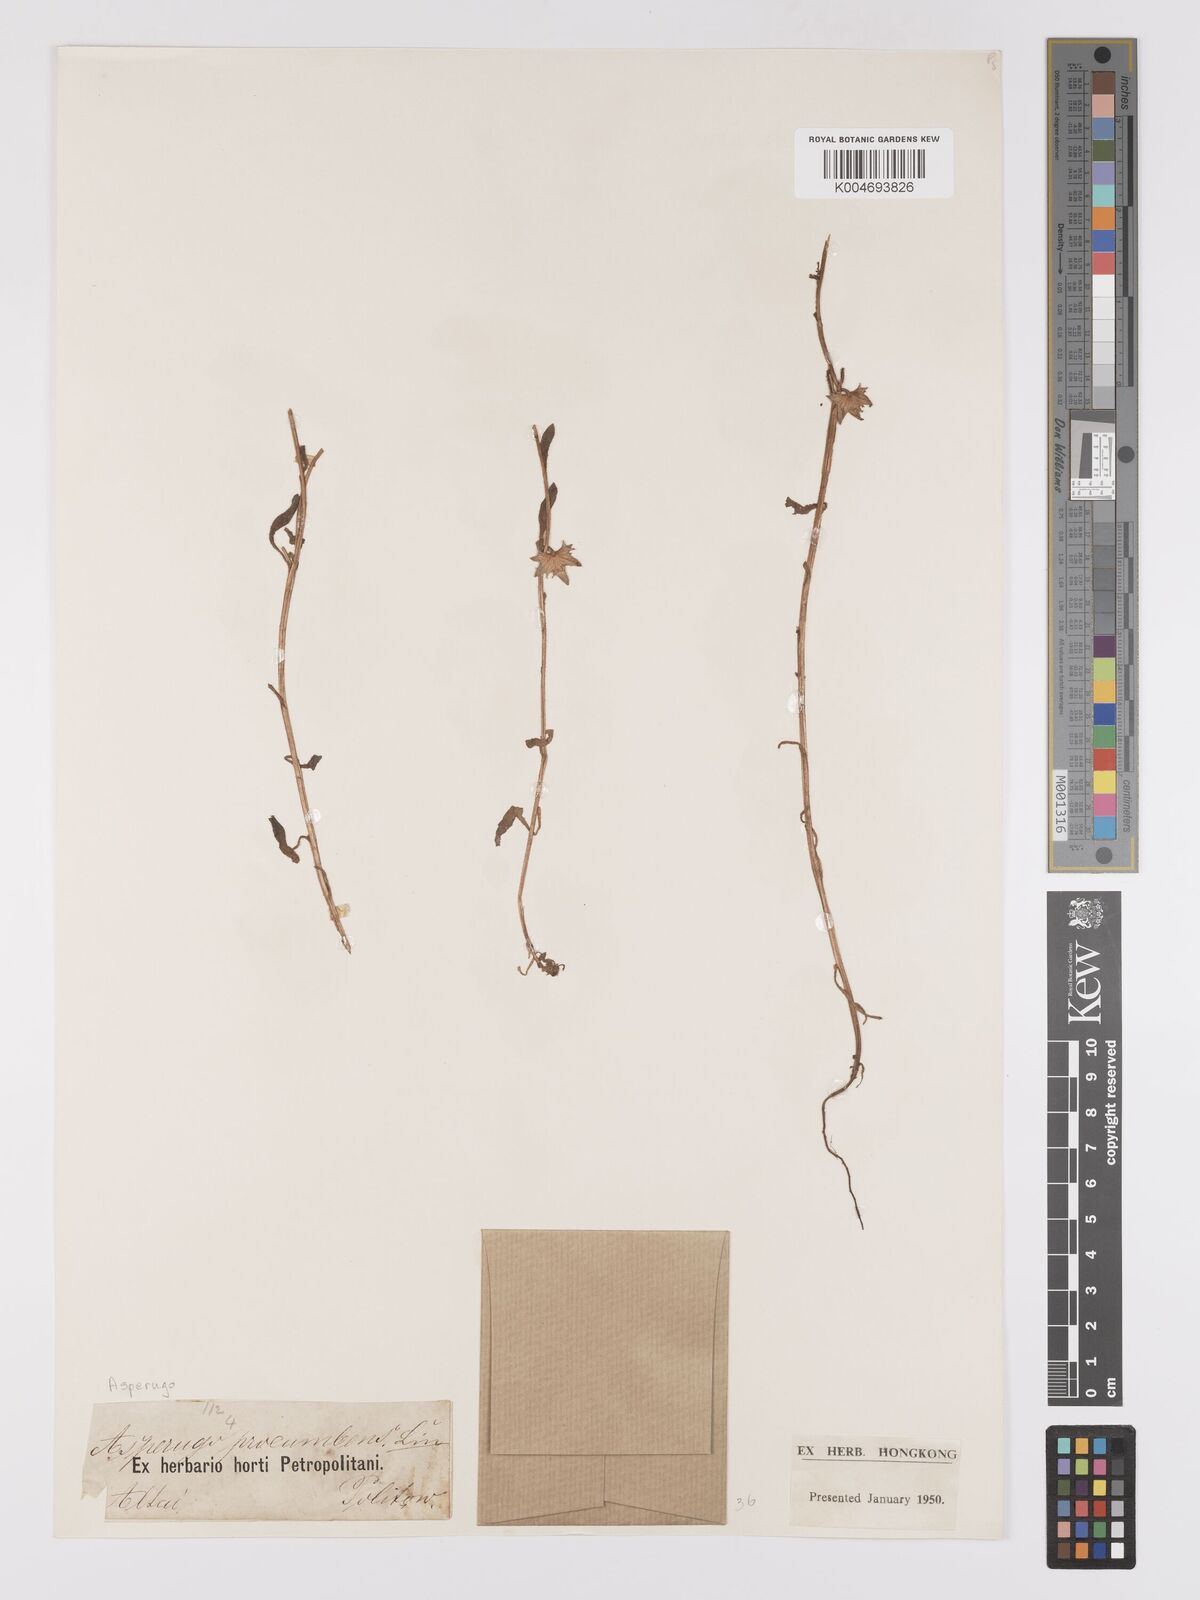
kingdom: Plantae
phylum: Tracheophyta
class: Magnoliopsida
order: Boraginales
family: Boraginaceae
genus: Asperugo
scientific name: Asperugo procumbens
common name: Madwort
